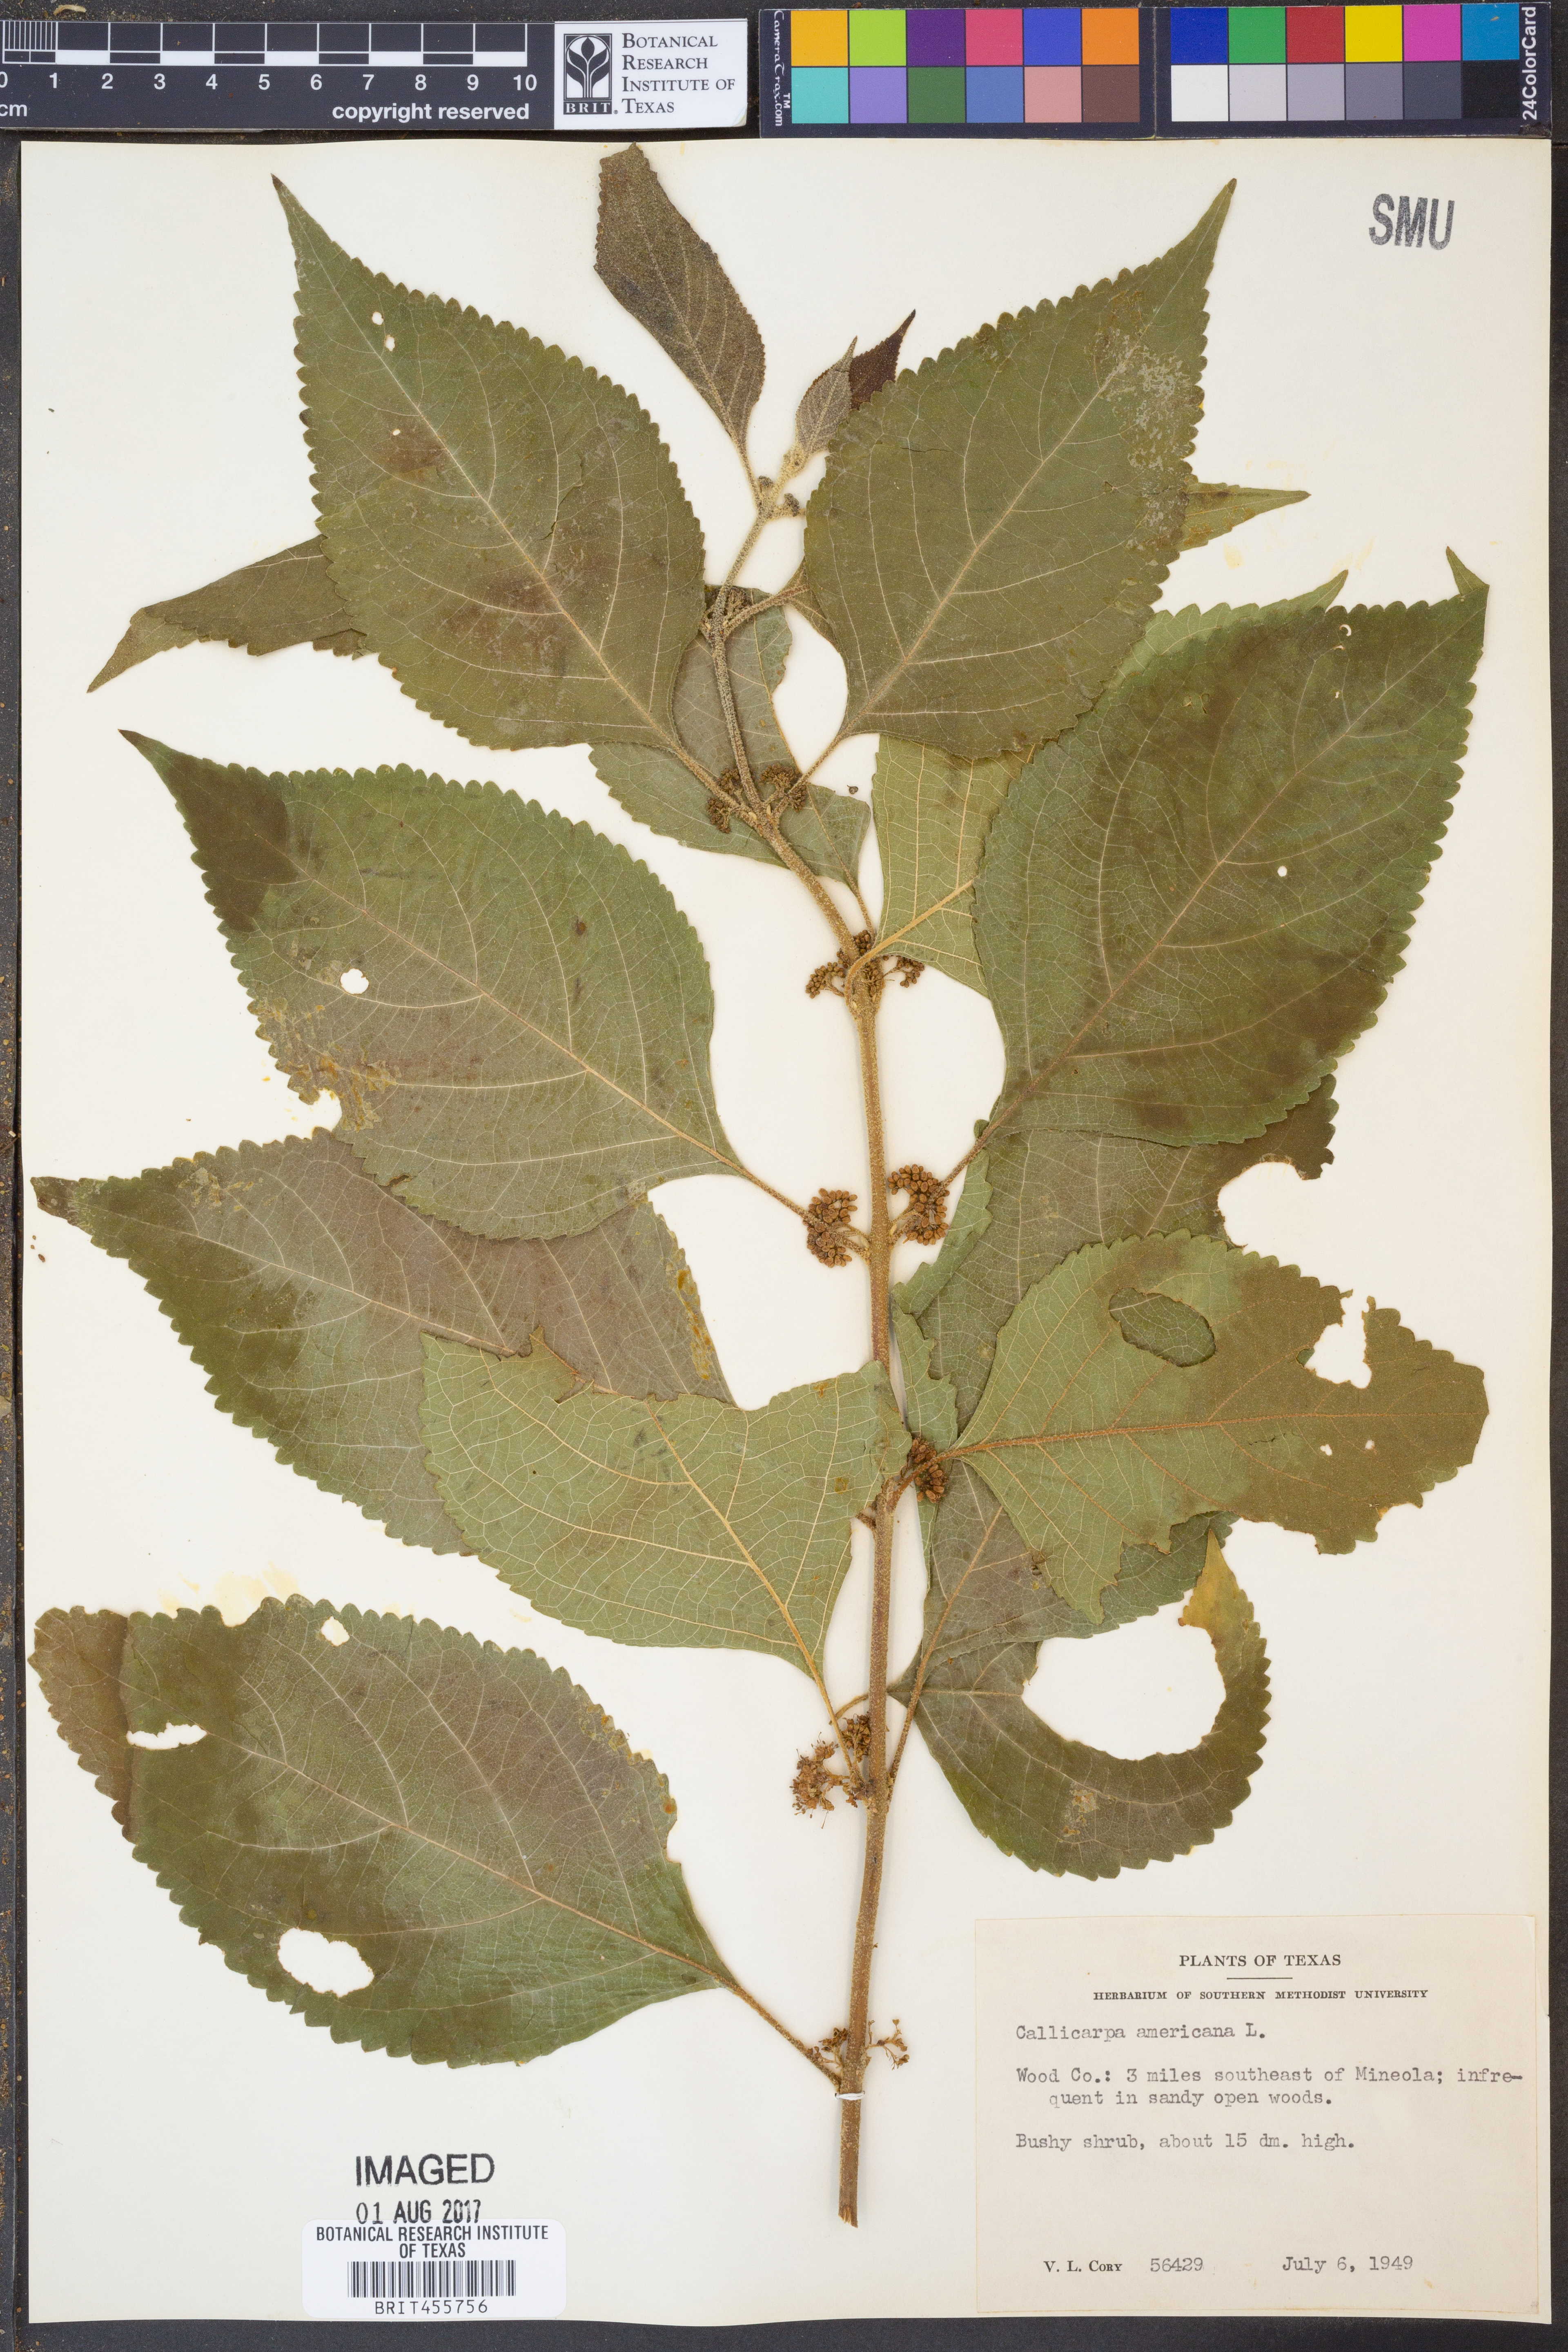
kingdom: Plantae
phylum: Tracheophyta
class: Magnoliopsida
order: Lamiales
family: Lamiaceae
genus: Callicarpa
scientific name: Callicarpa americana
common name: American beautyberry
